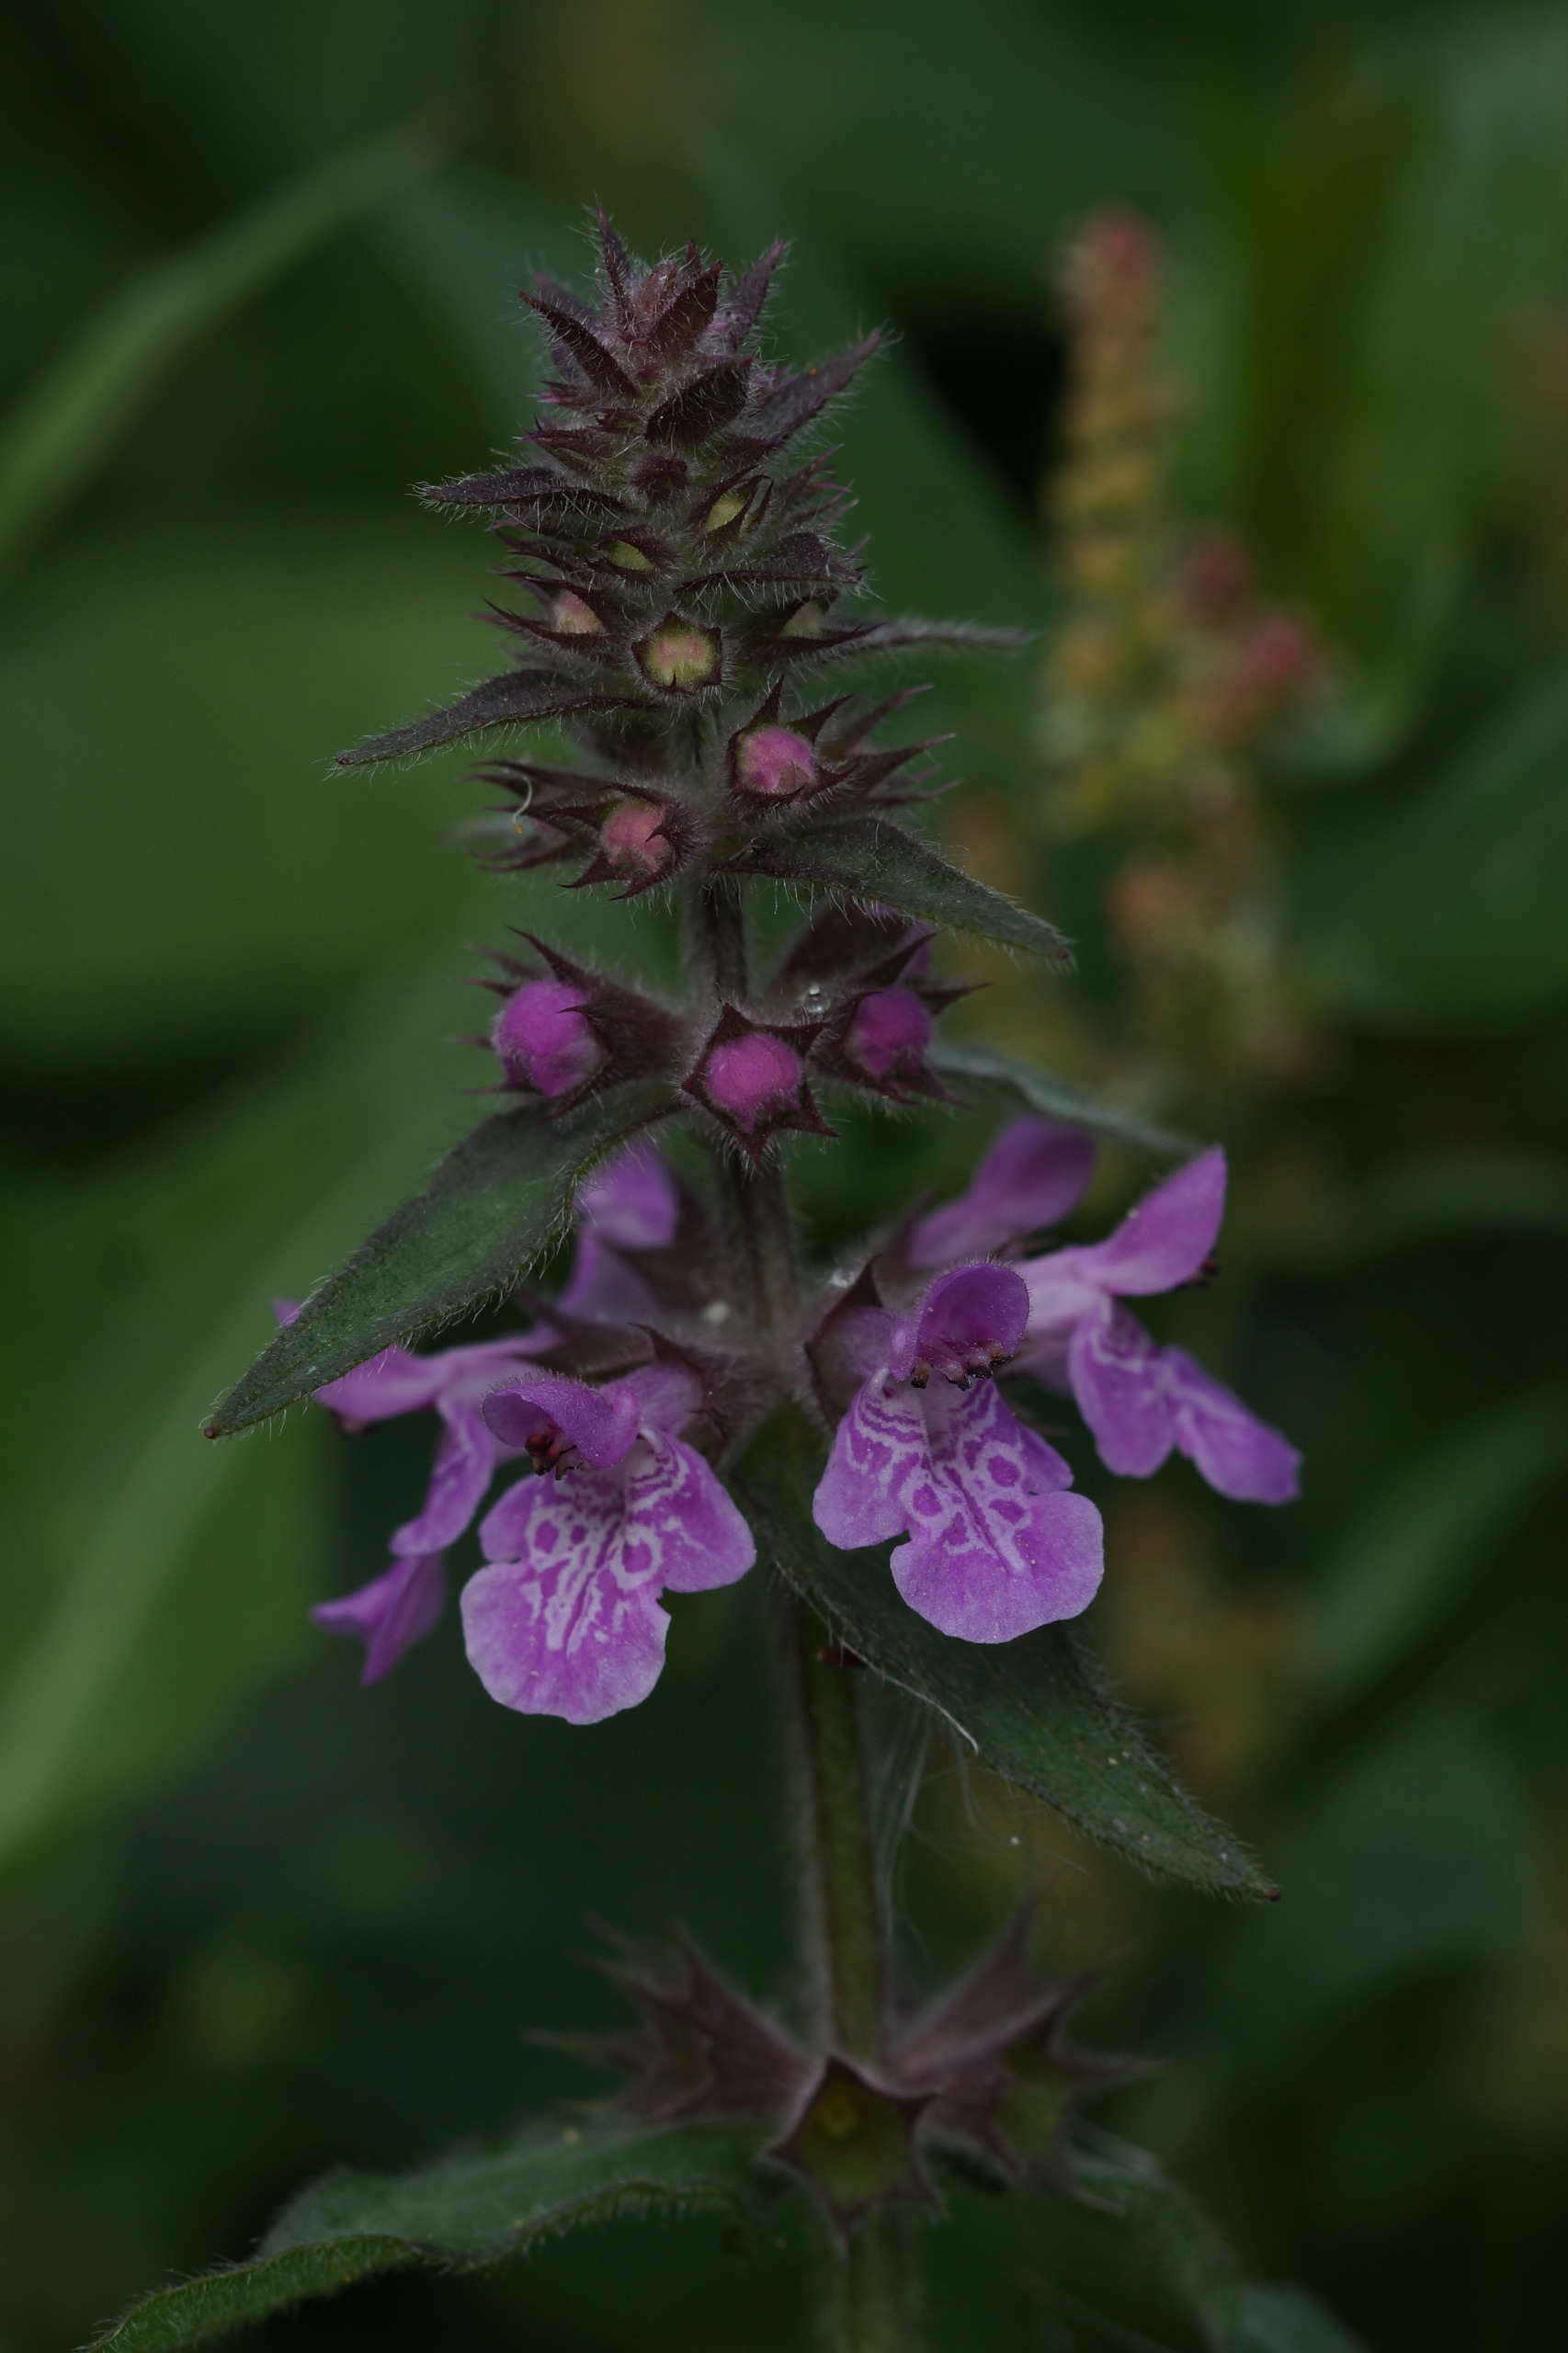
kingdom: Plantae
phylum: Tracheophyta
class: Magnoliopsida
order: Lamiales
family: Lamiaceae
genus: Stachys
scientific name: Stachys palustris
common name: Kær-galtetand
